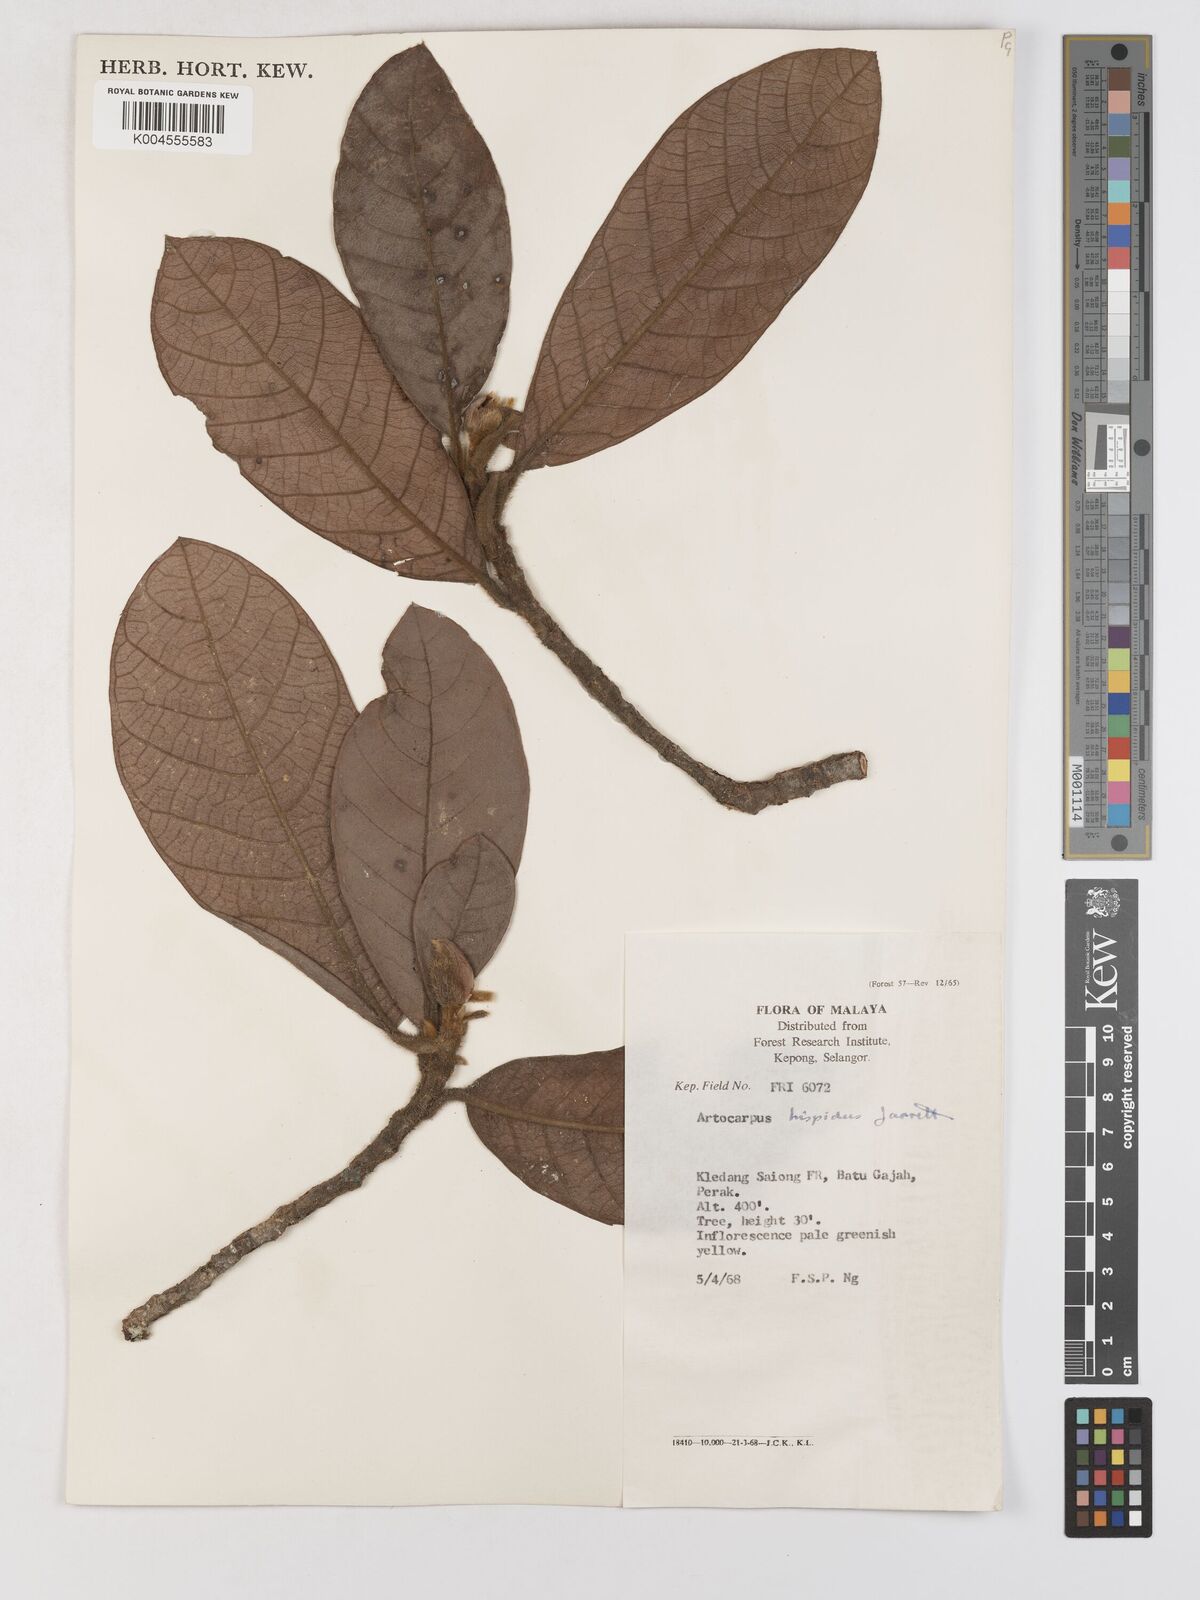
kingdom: Plantae
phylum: Tracheophyta
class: Magnoliopsida
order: Rosales
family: Moraceae
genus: Artocarpus
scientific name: Artocarpus hispidus
